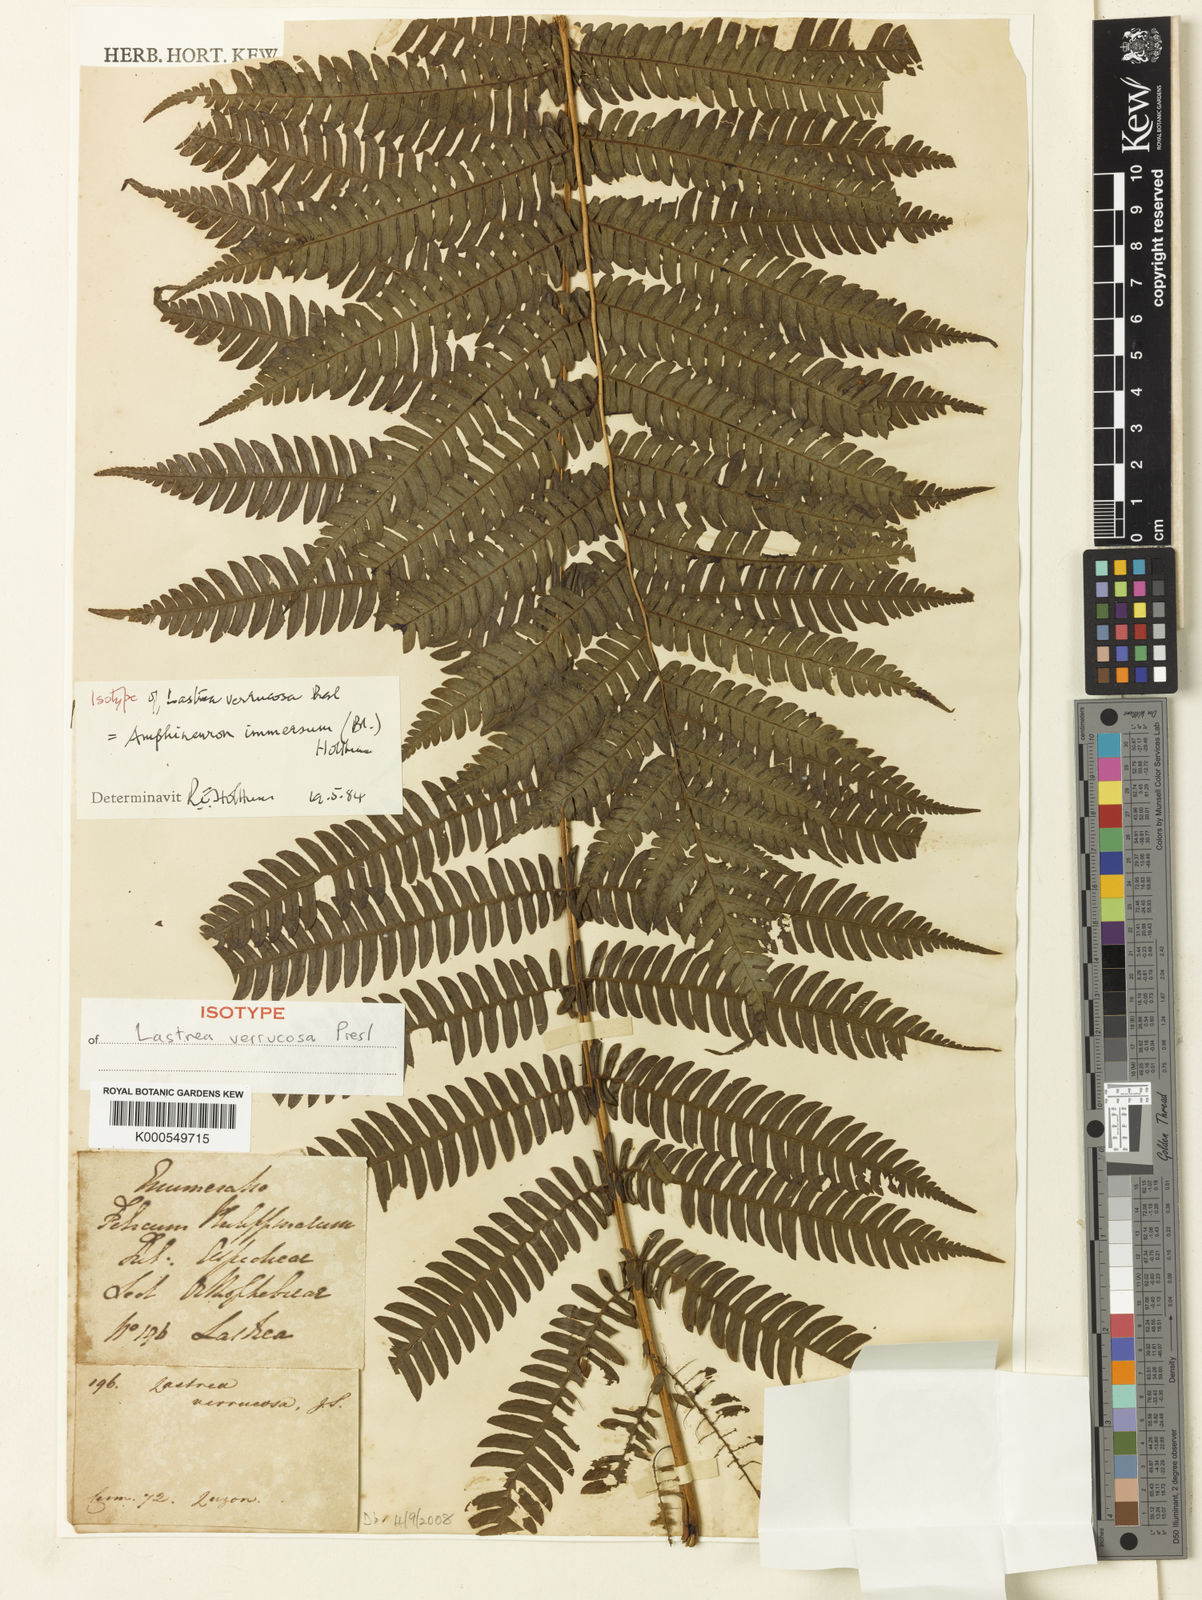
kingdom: Plantae
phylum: Tracheophyta
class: Polypodiopsida
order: Polypodiales
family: Thelypteridaceae
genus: Amblovenatum
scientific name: Amblovenatum immersum
